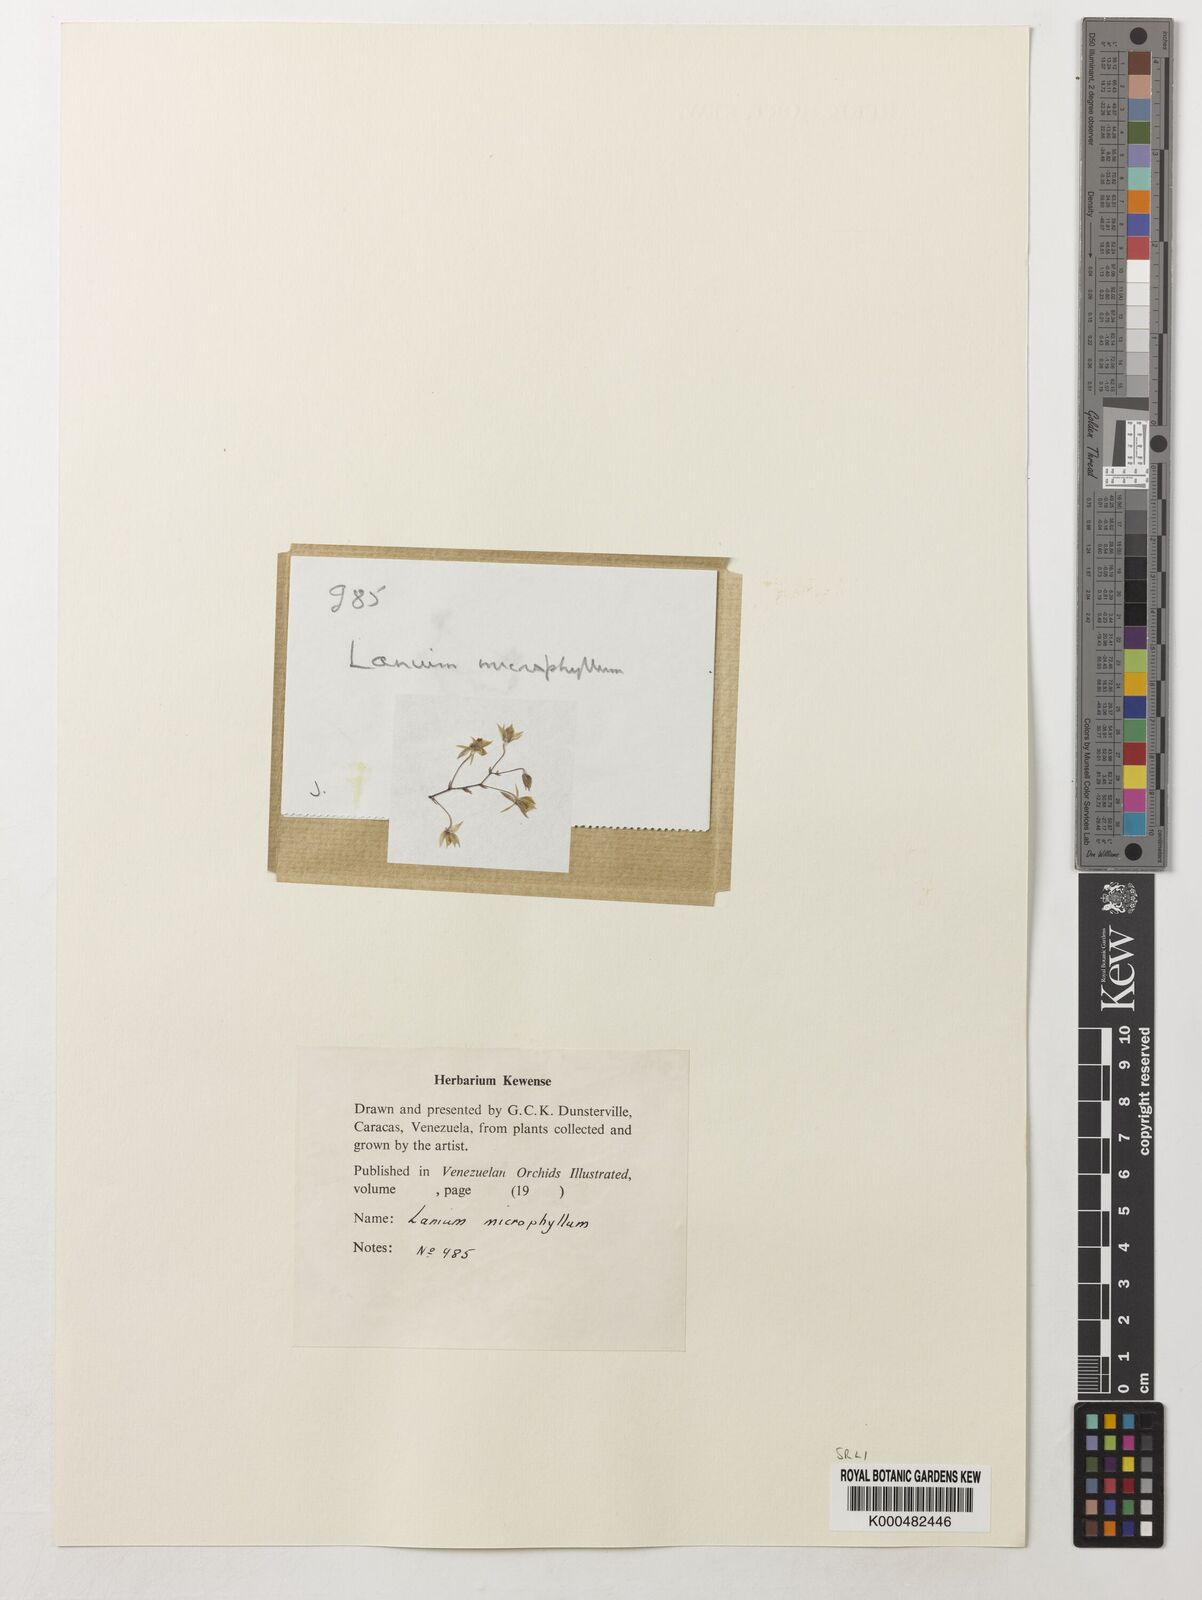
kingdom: Plantae
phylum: Tracheophyta
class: Liliopsida
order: Asparagales
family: Orchidaceae
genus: Epidendrum
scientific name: Epidendrum microphyllum
